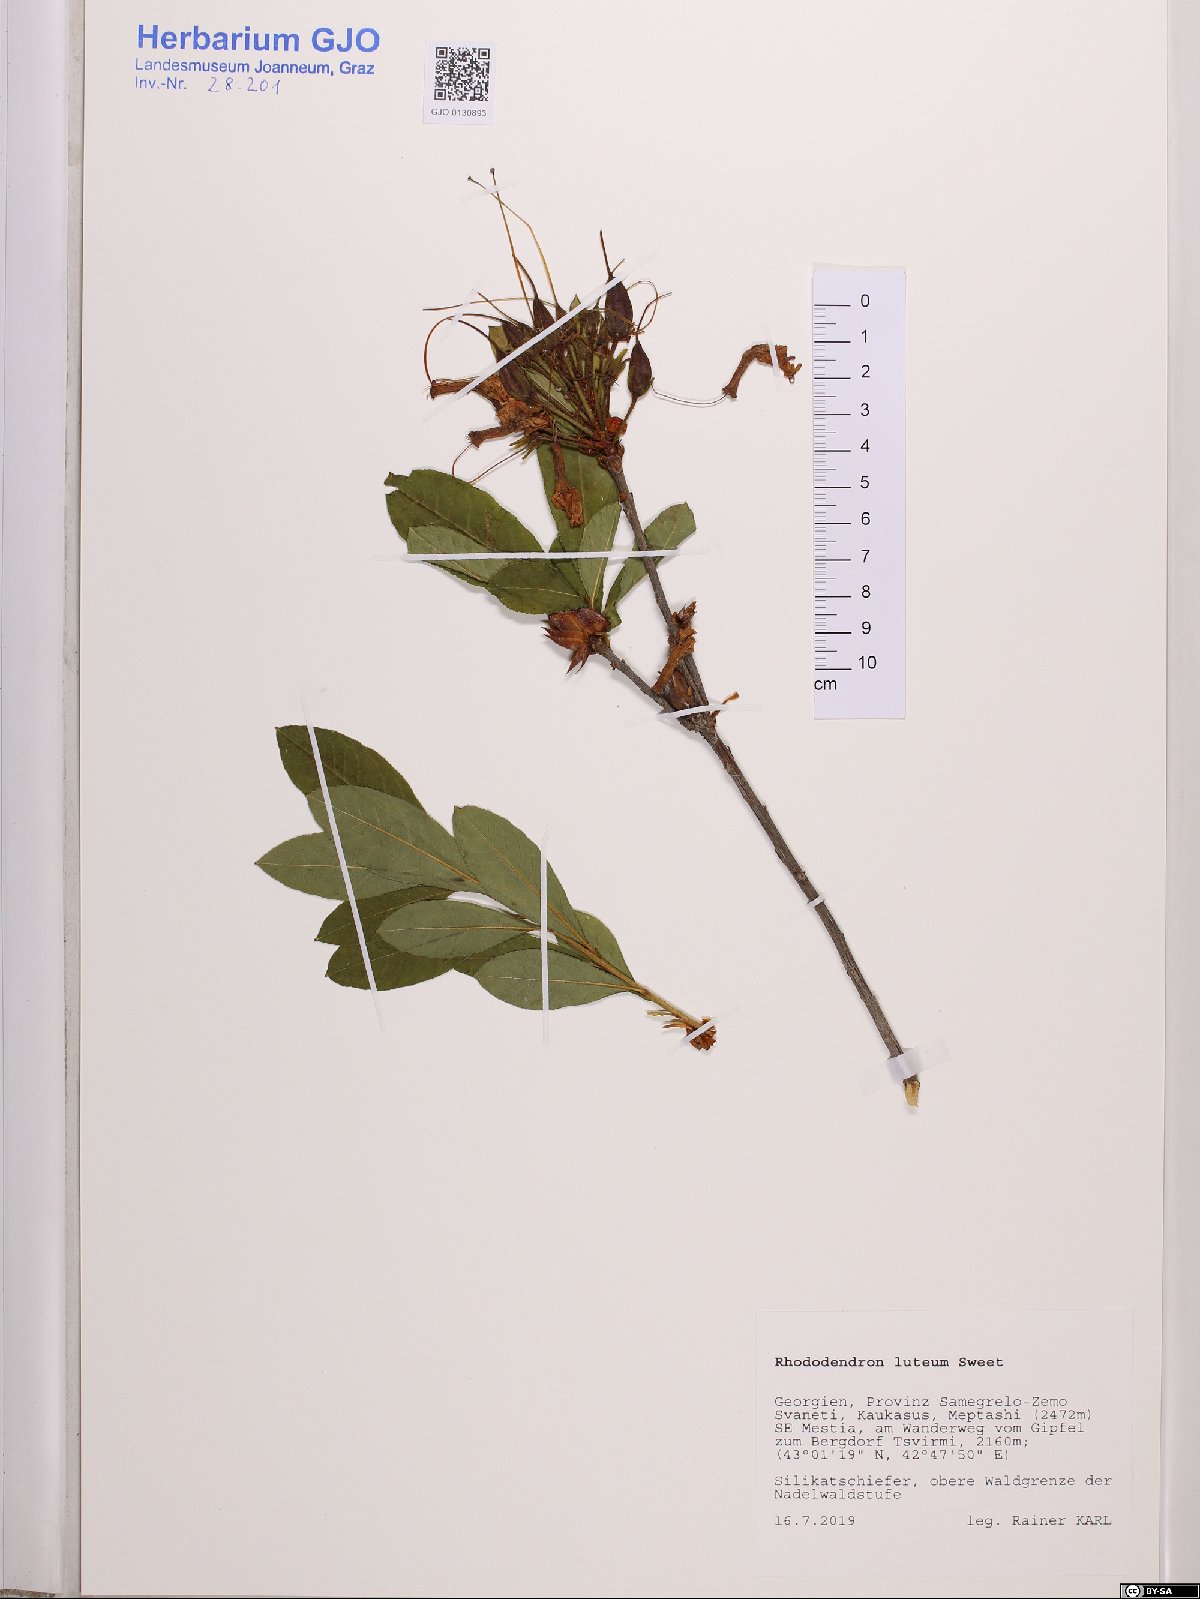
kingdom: Plantae
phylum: Tracheophyta
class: Magnoliopsida
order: Ericales
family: Ericaceae
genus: Rhododendron
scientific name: Rhododendron luteum
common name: Yellow azalea
